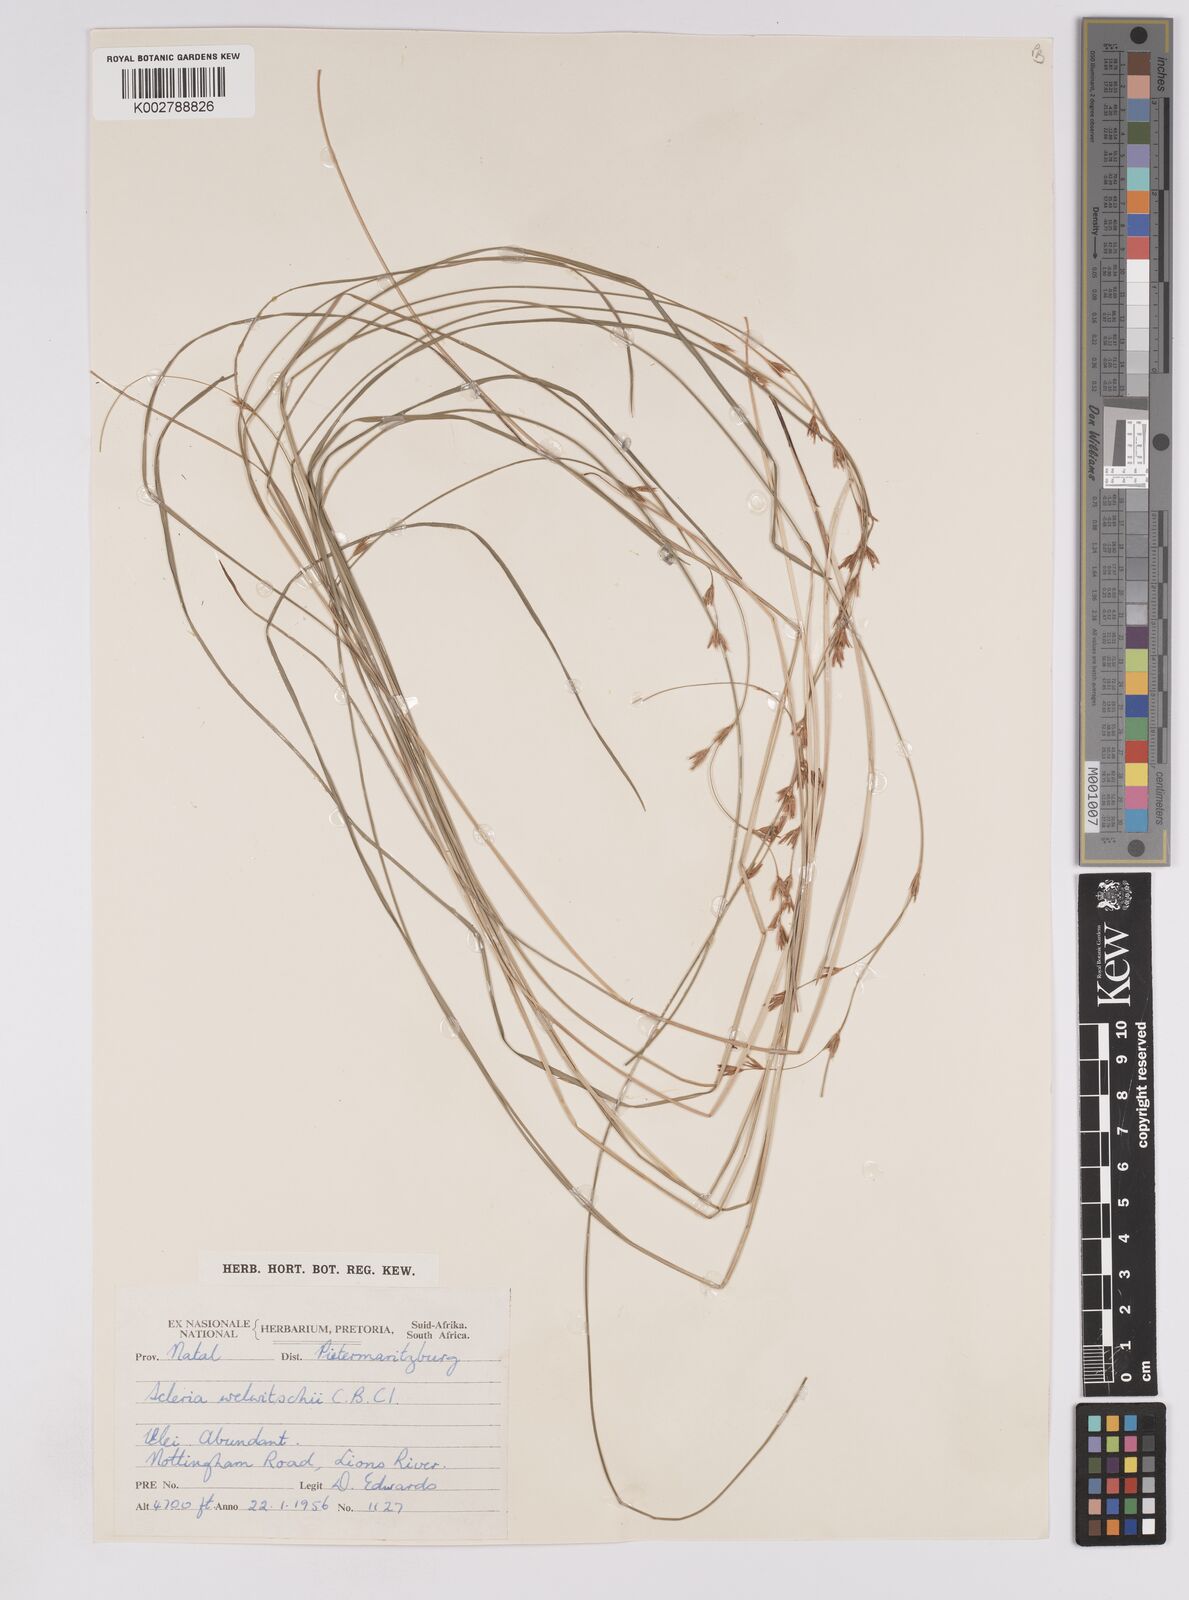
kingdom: Plantae
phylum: Tracheophyta
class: Liliopsida
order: Poales
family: Cyperaceae
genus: Scleria
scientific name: Scleria welwitschii
